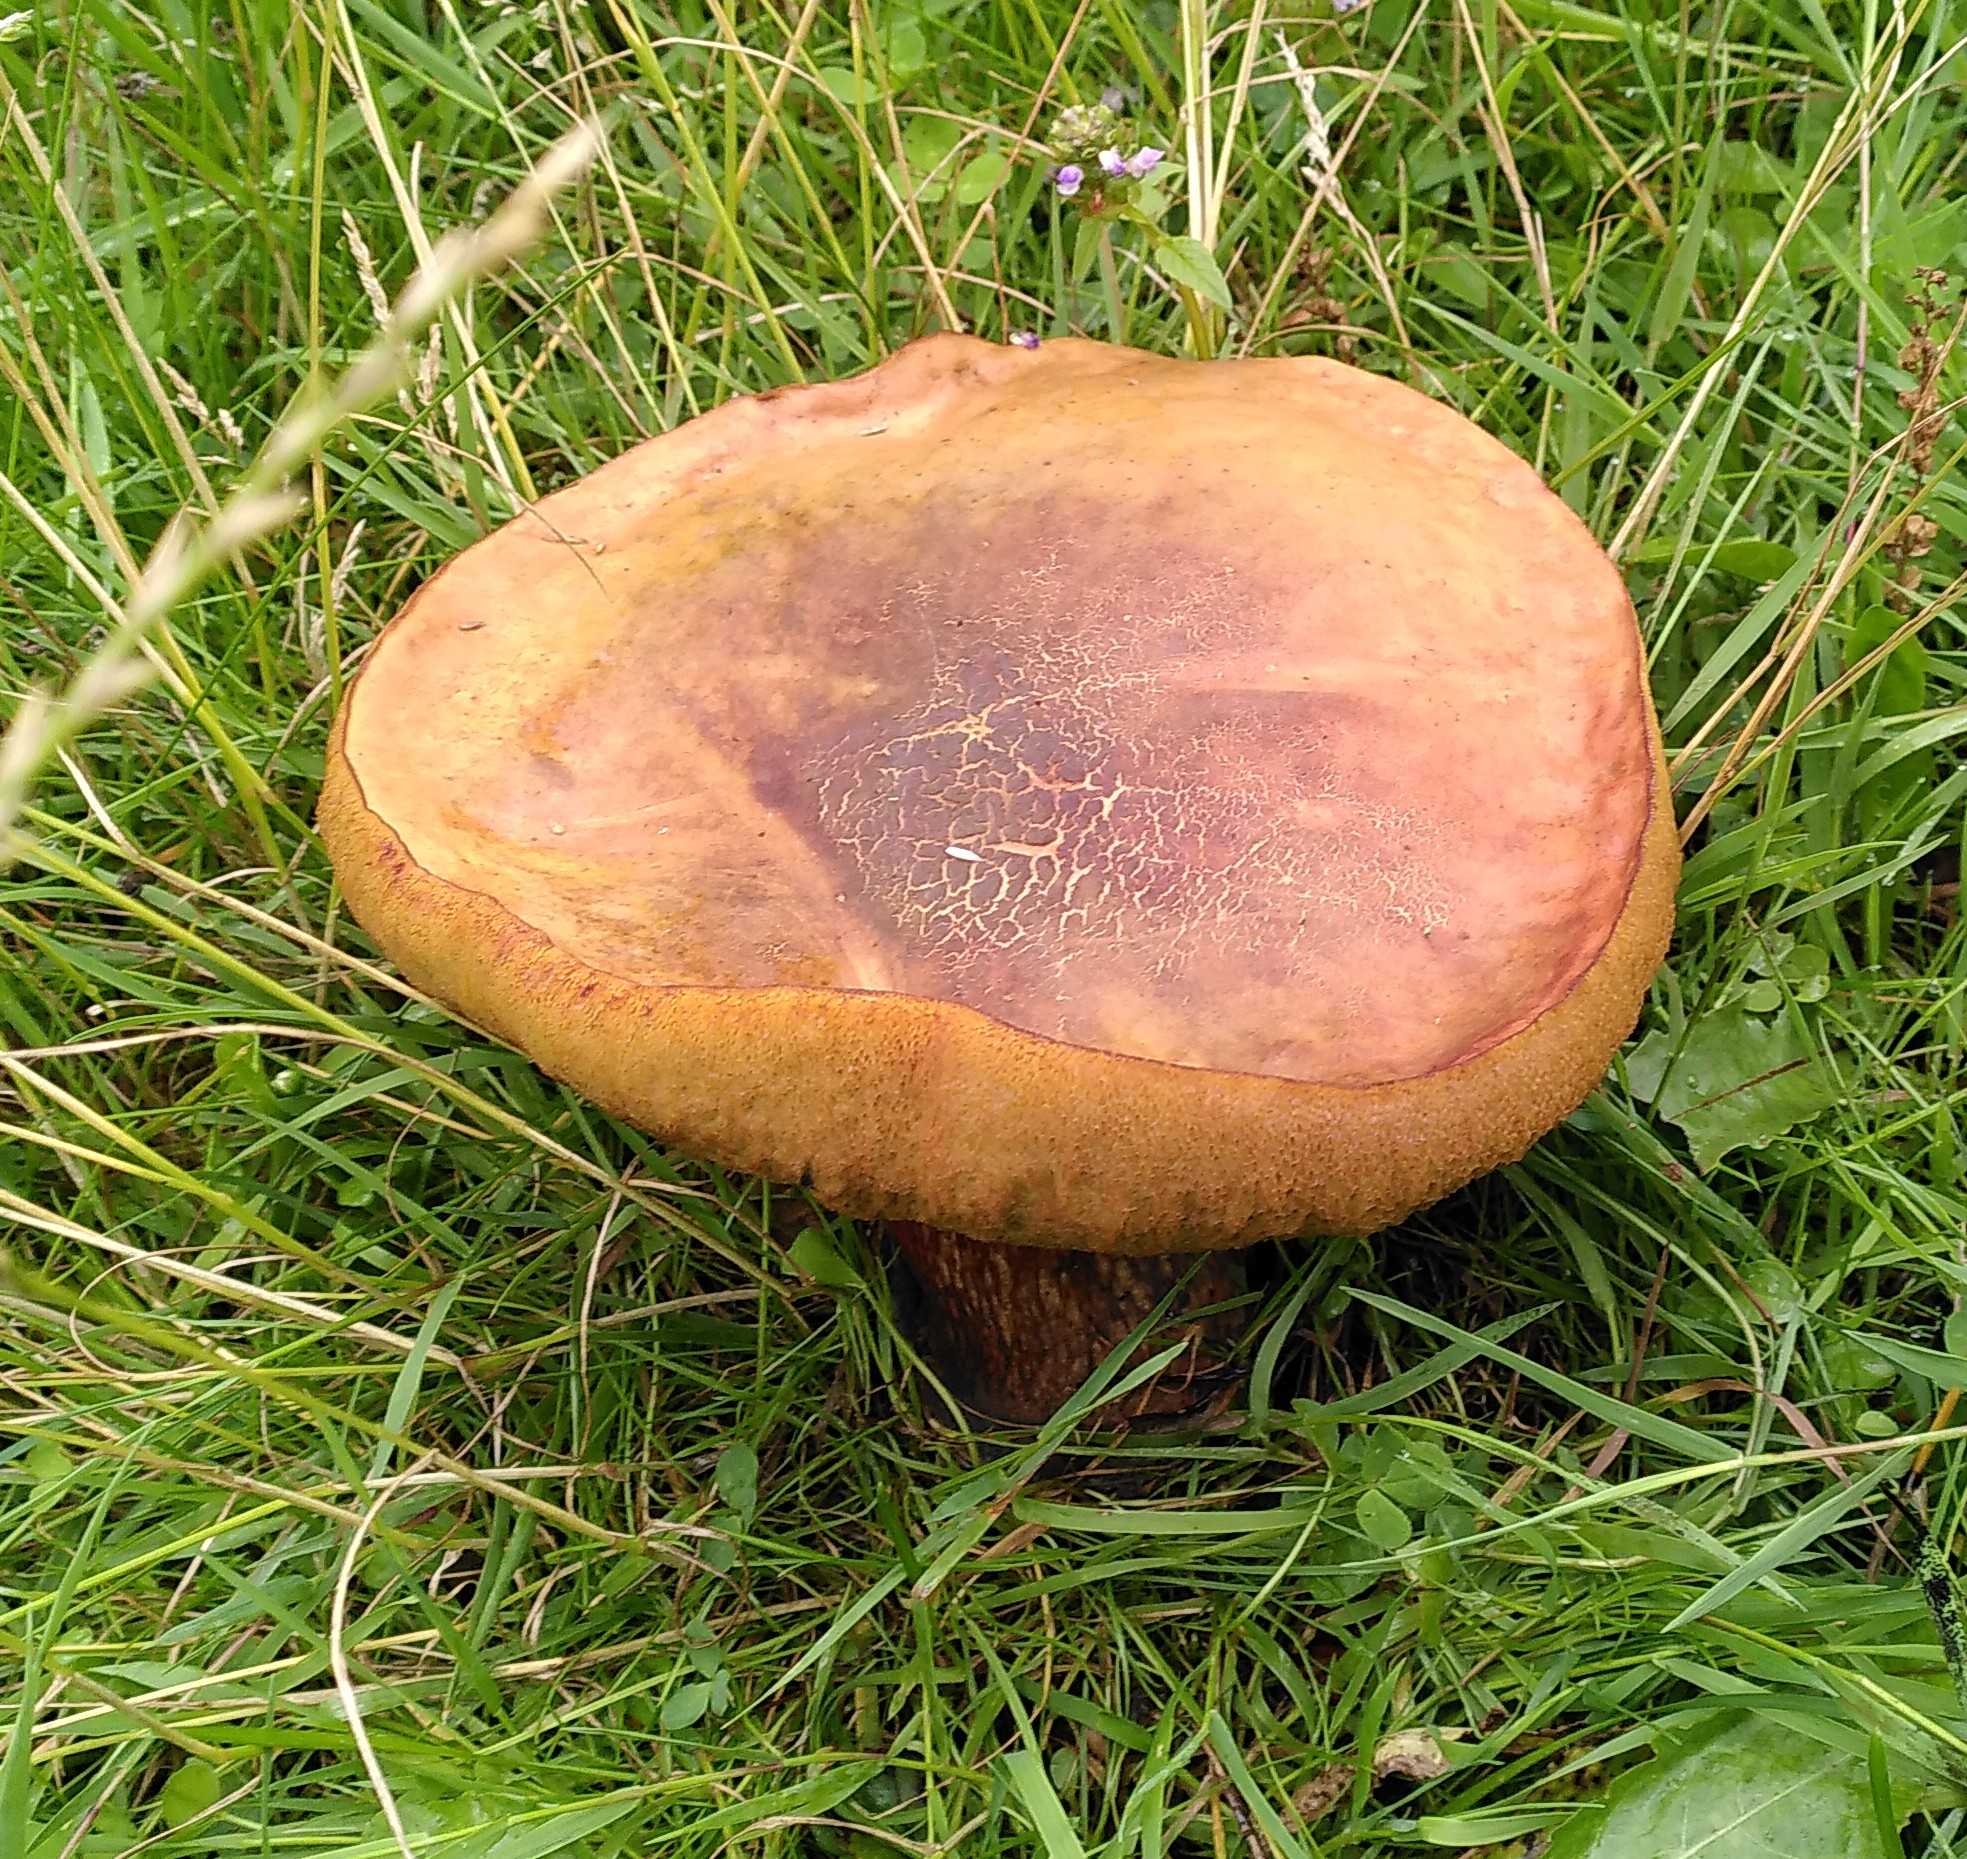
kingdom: Fungi
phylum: Basidiomycota
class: Agaricomycetes
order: Boletales
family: Boletaceae
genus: Suillellus
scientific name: Suillellus luridus
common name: netstokket indigorørhat
